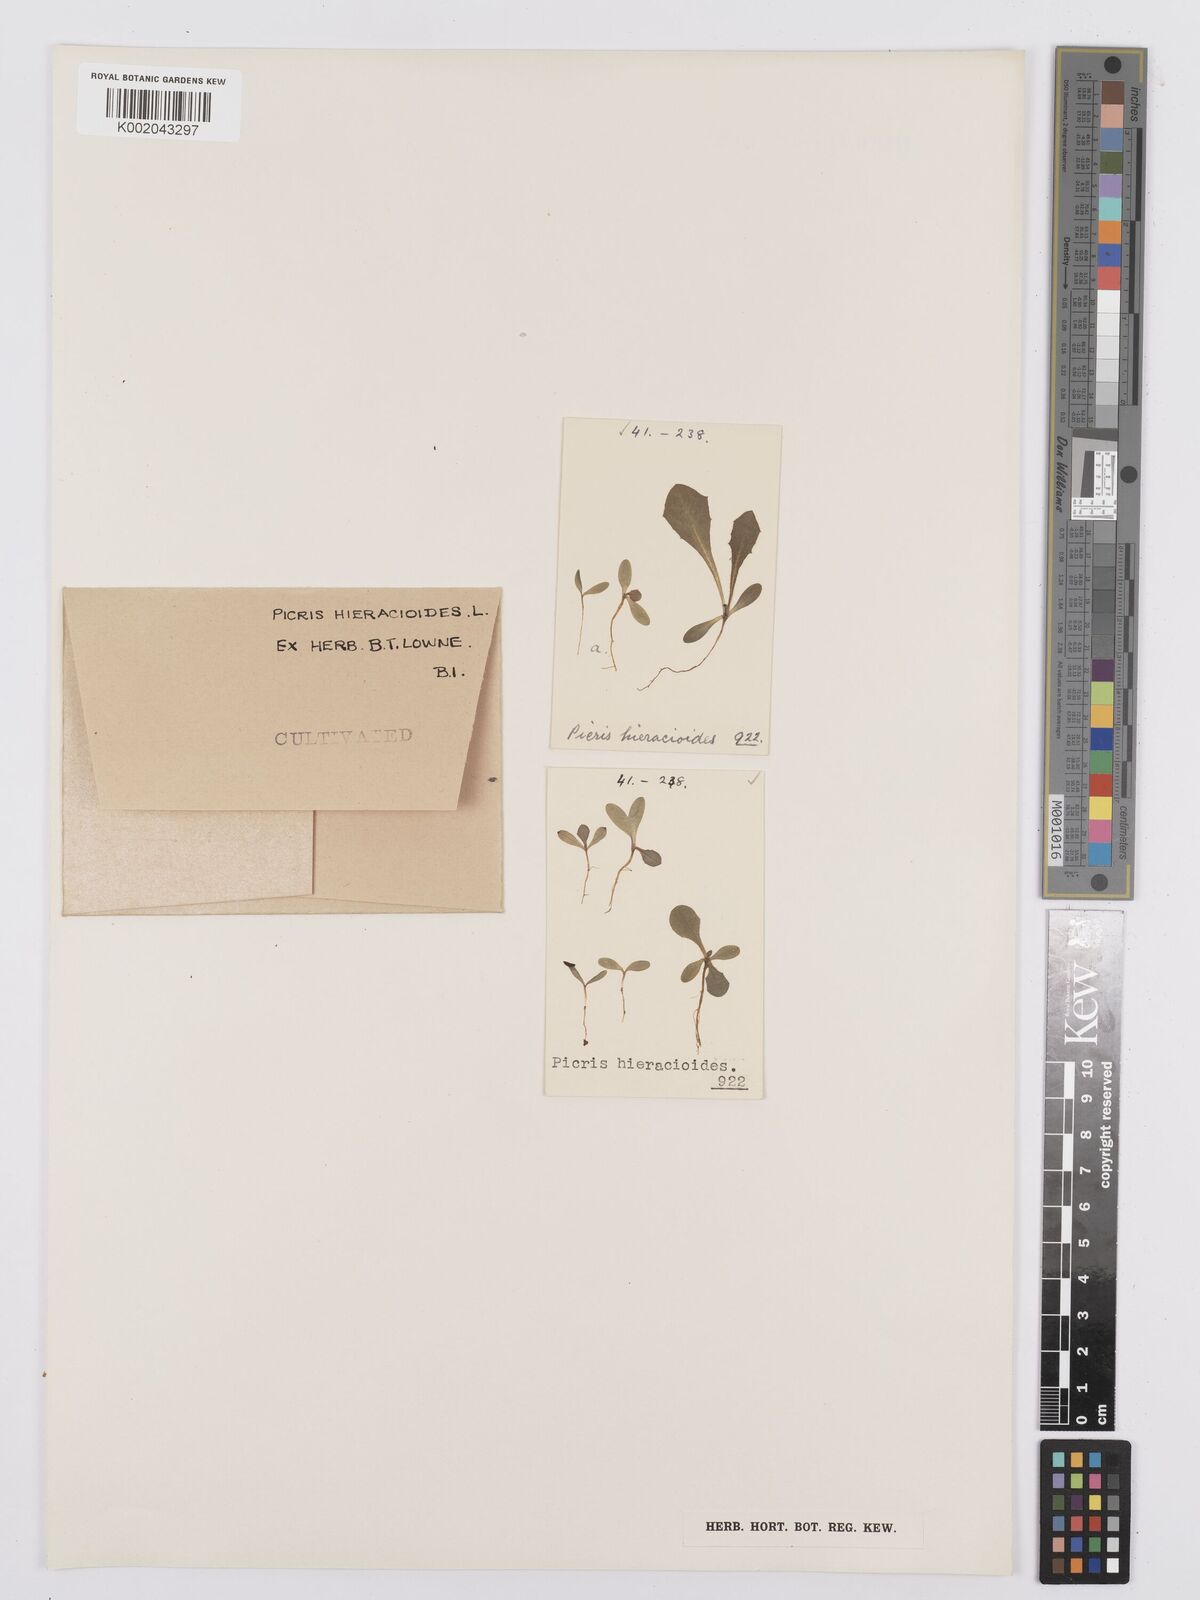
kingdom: Plantae
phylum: Tracheophyta
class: Magnoliopsida
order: Asterales
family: Asteraceae
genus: Picris
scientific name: Picris hieracioides
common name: Hawkweed oxtongue
